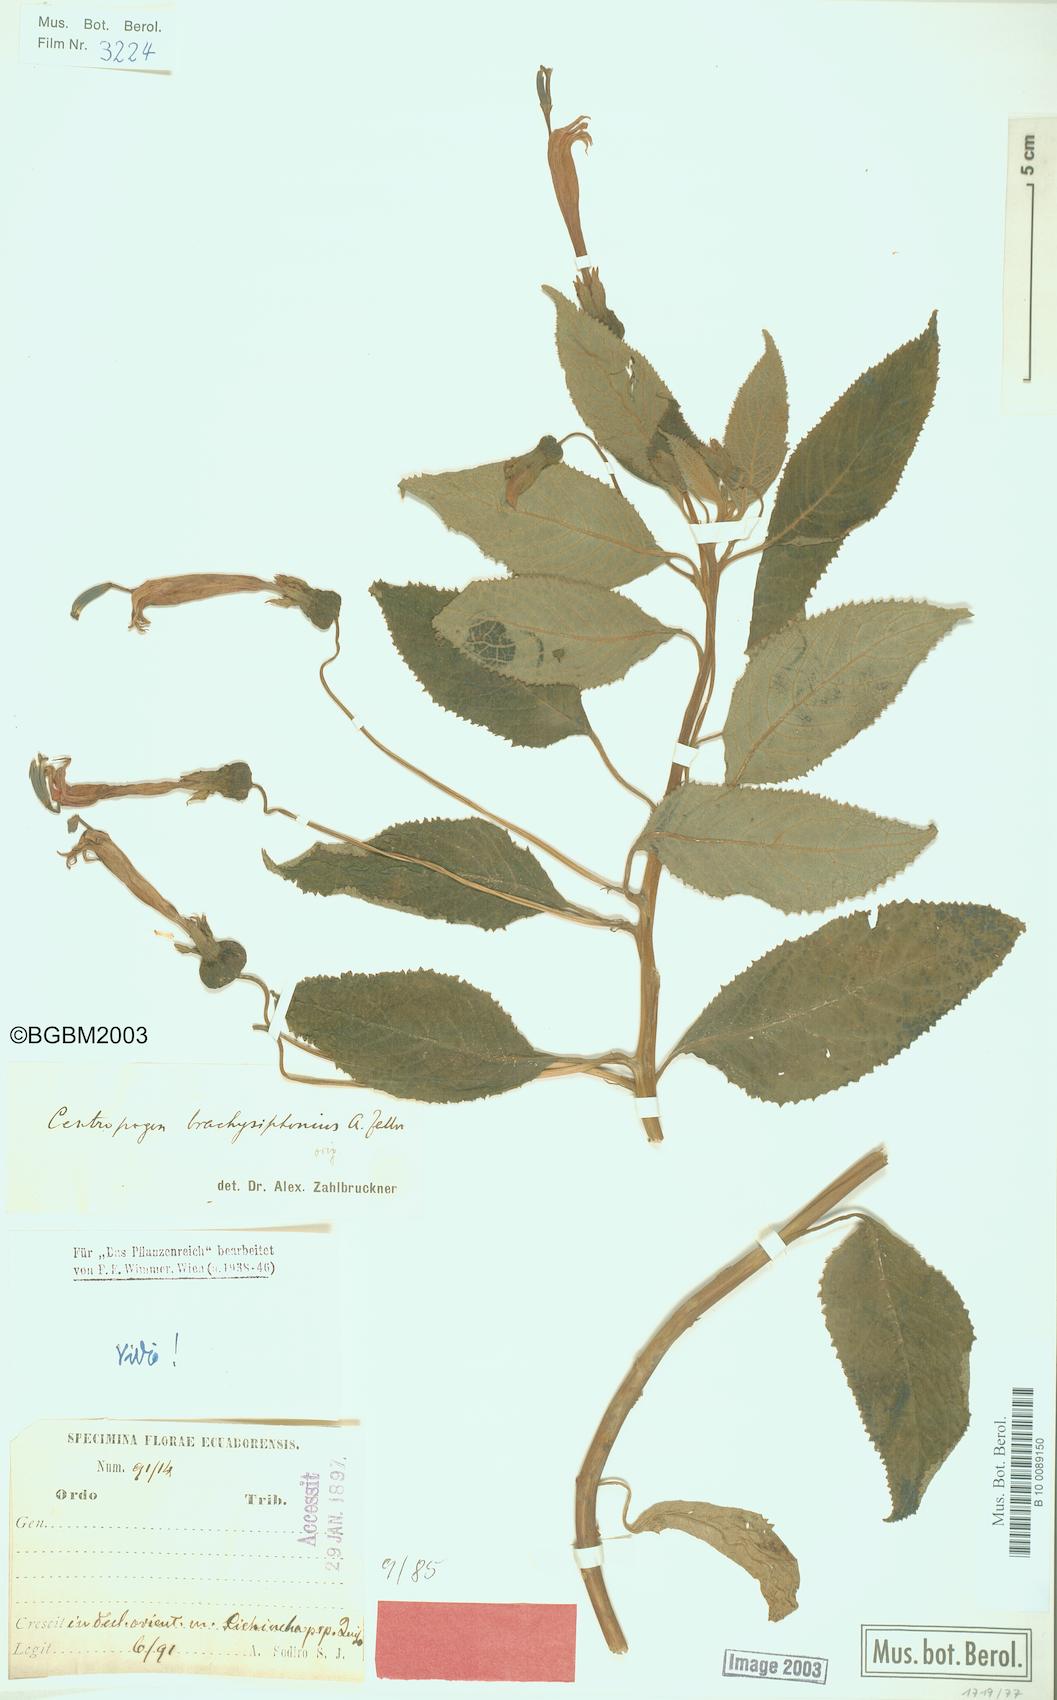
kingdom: Plantae
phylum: Tracheophyta
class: Magnoliopsida
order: Asterales
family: Campanulaceae
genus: Centropogon
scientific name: Centropogon brachysiphoniatus
